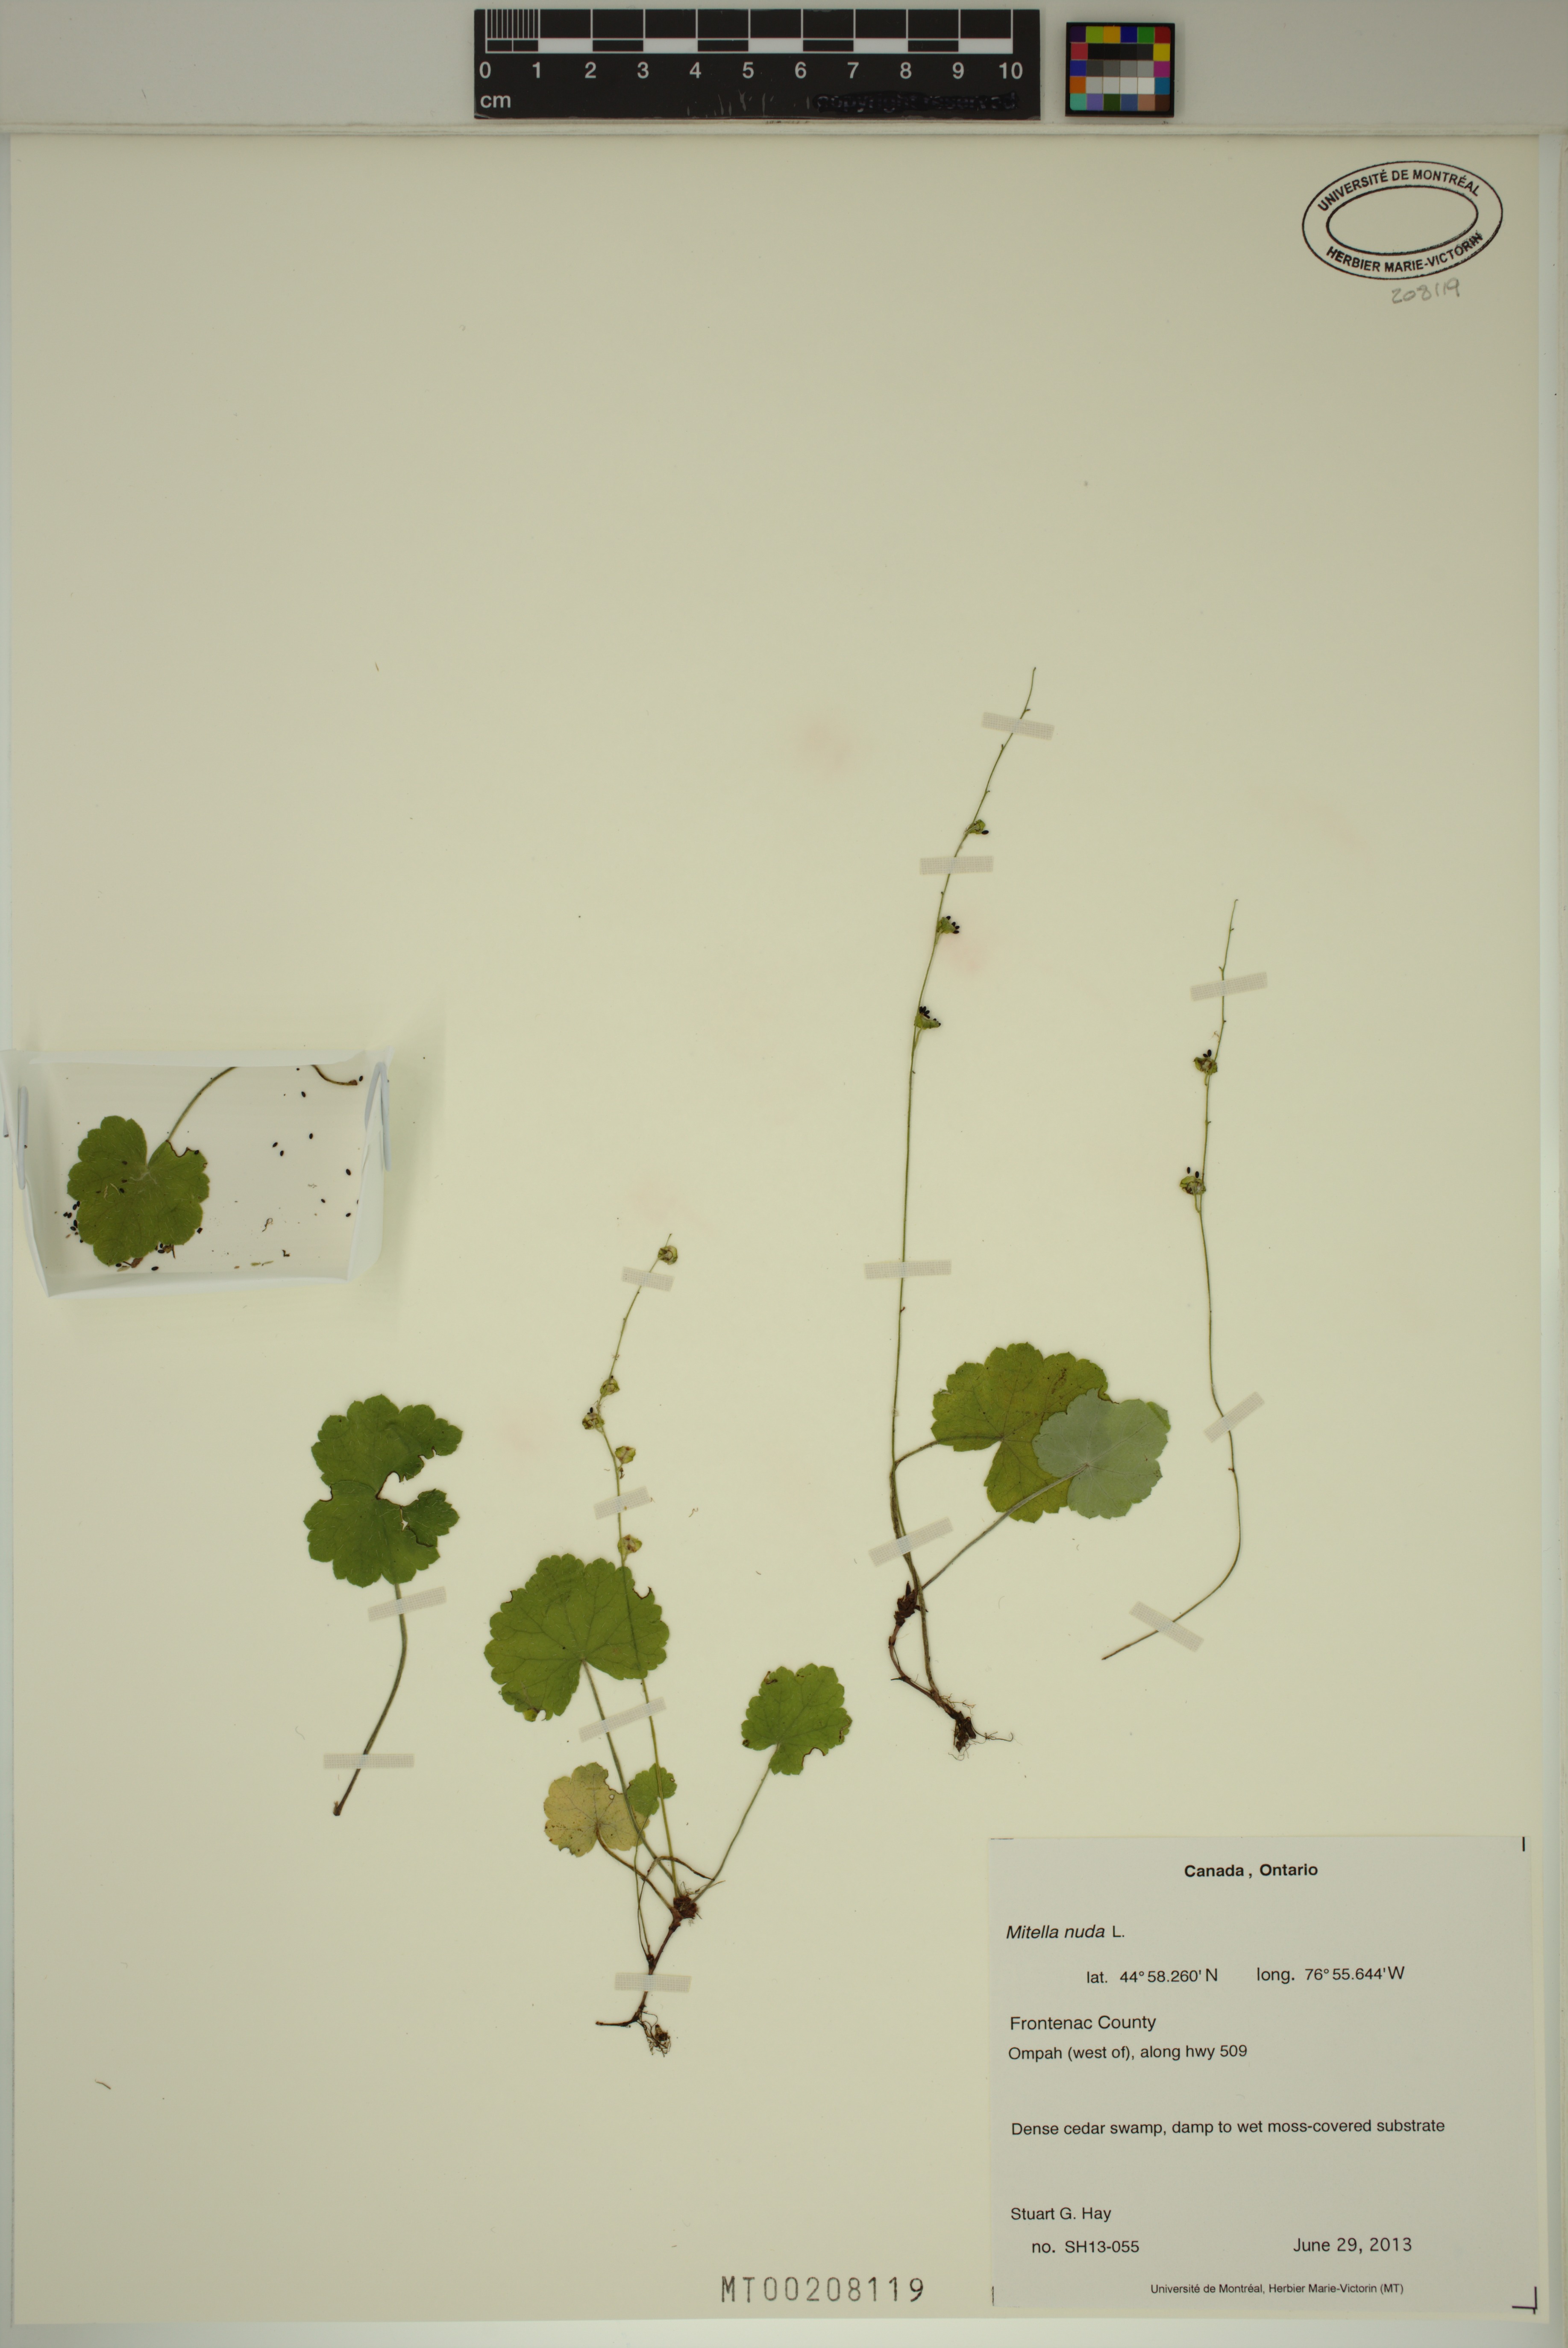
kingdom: Plantae
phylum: Tracheophyta
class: Magnoliopsida
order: Saxifragales
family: Saxifragaceae
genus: Mitella
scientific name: Mitella nuda
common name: Bare-stemmed bishop's-cap
